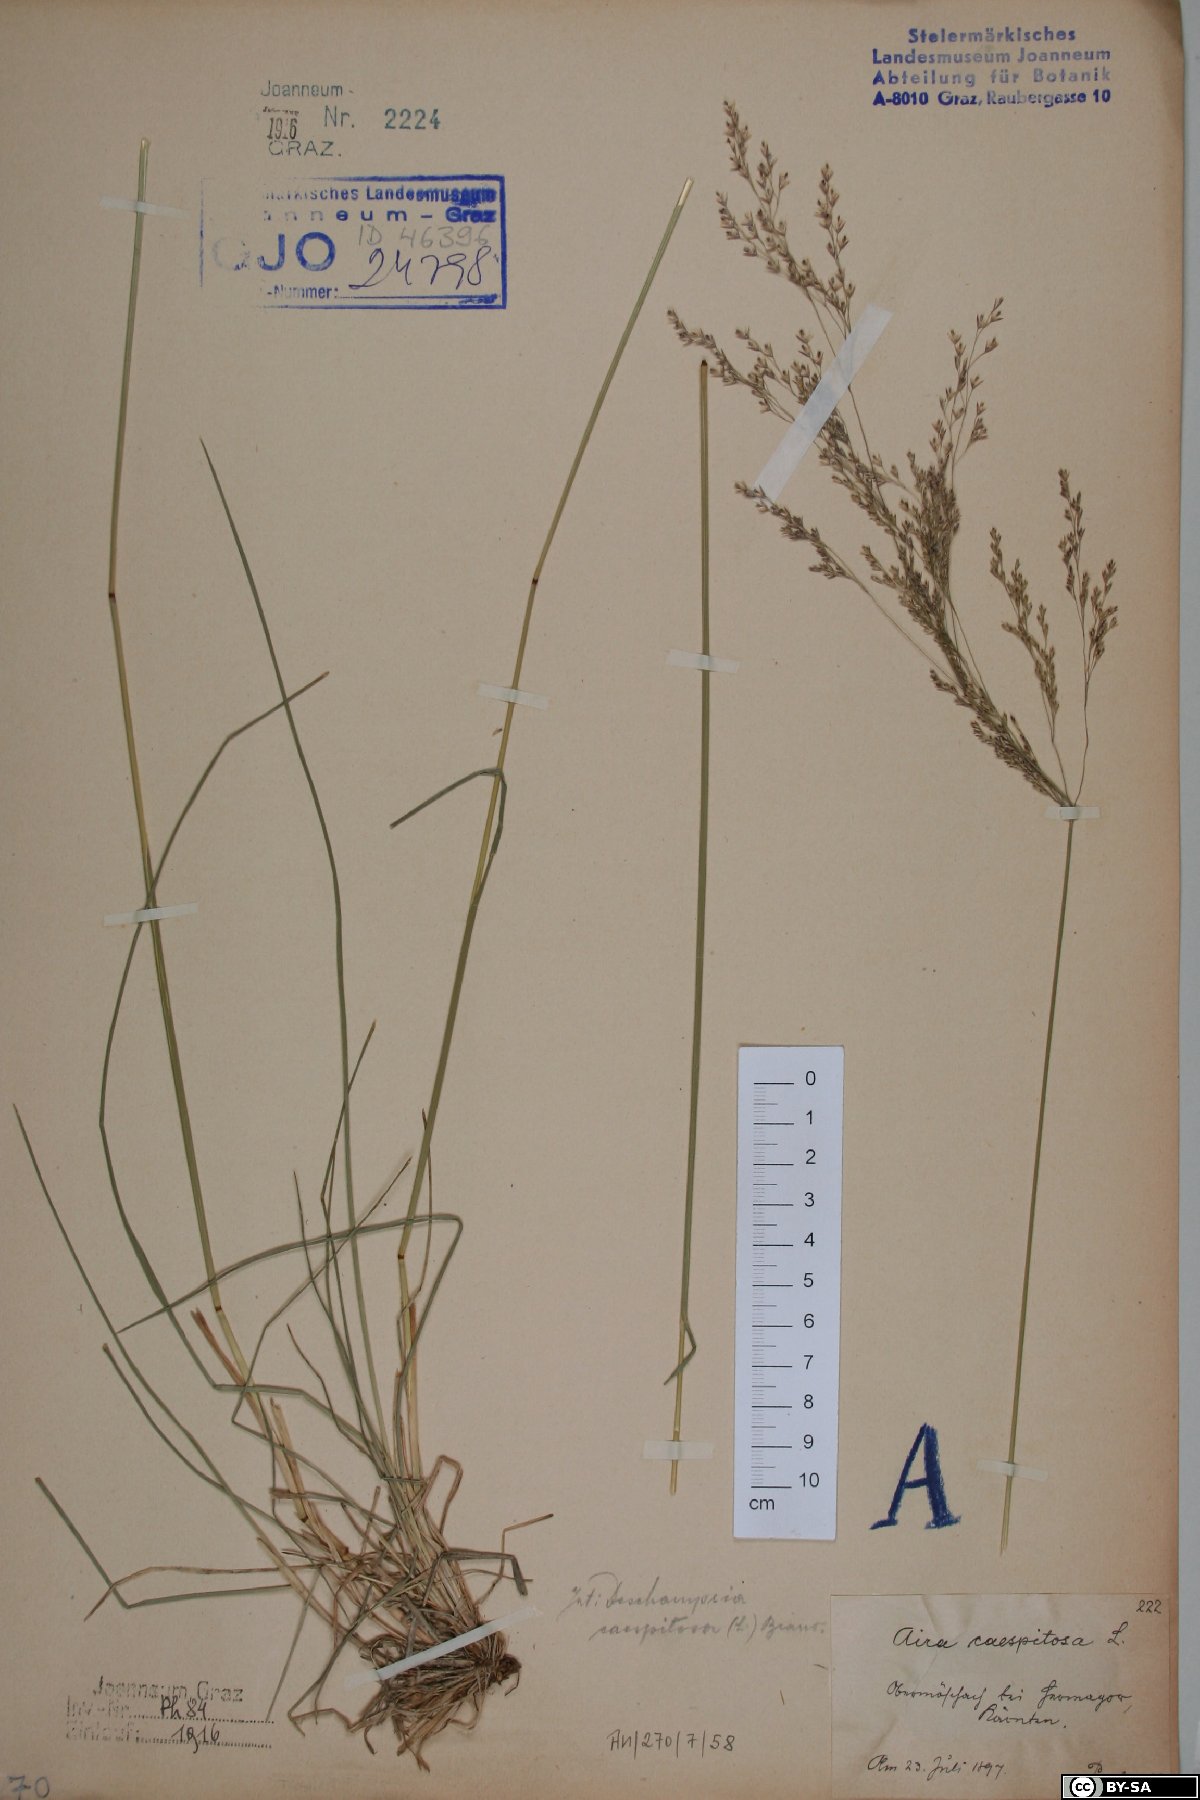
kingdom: Plantae
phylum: Tracheophyta
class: Liliopsida
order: Poales
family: Poaceae
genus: Deschampsia
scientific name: Deschampsia cespitosa
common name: Tufted hair-grass
